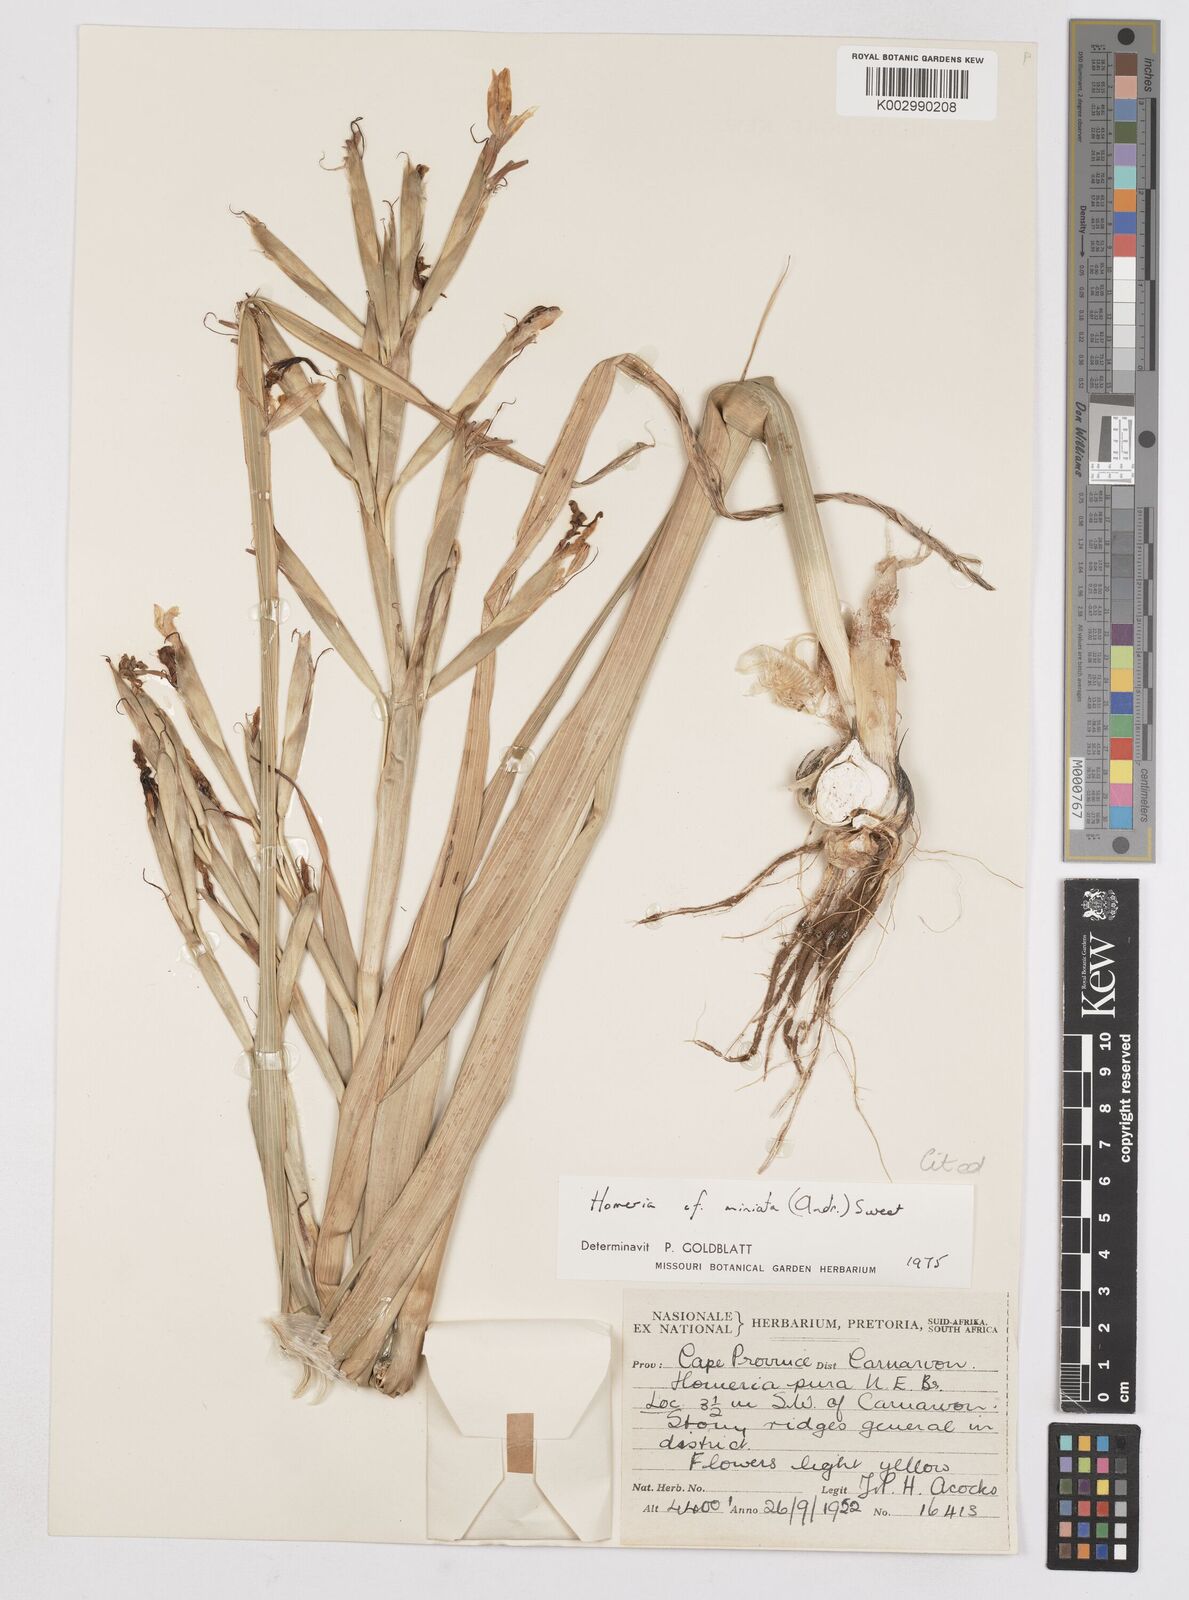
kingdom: Plantae
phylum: Tracheophyta
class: Liliopsida
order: Asparagales
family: Iridaceae
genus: Moraea
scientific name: Moraea miniata
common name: Two-leaf cape-tulip
